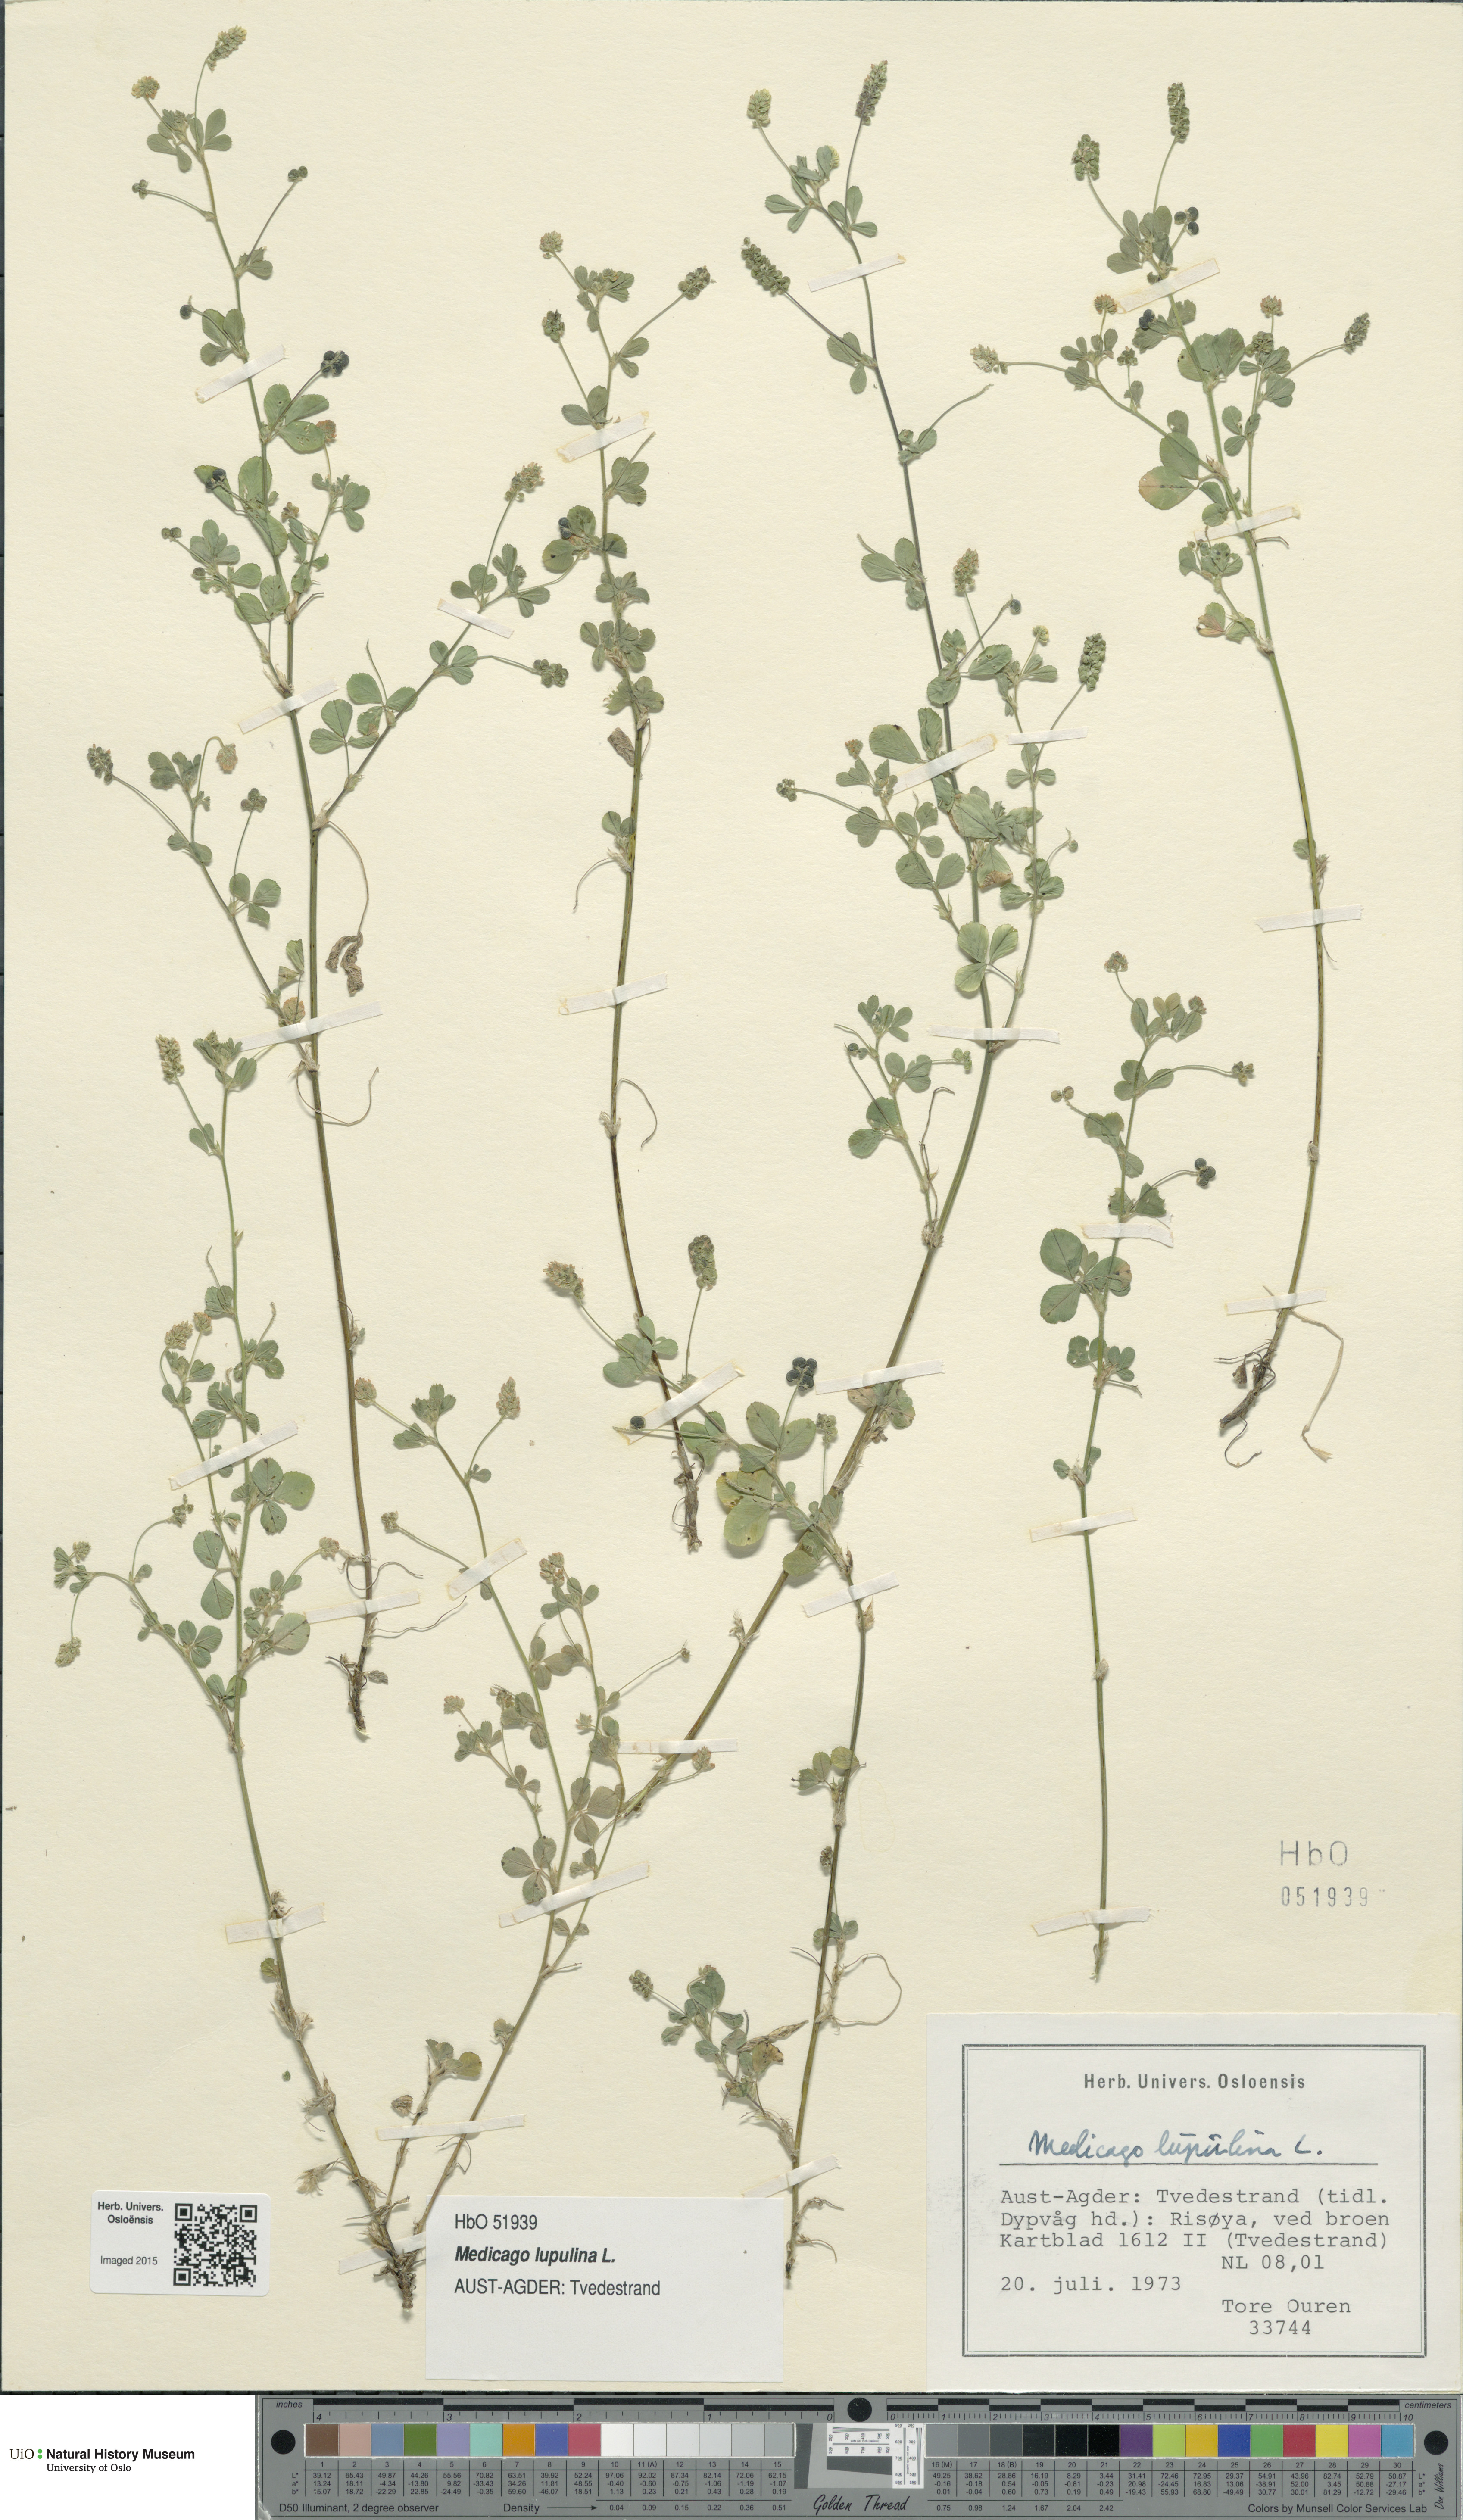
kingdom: Plantae
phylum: Tracheophyta
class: Magnoliopsida
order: Fabales
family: Fabaceae
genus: Medicago
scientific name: Medicago lupulina
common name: Black medick
